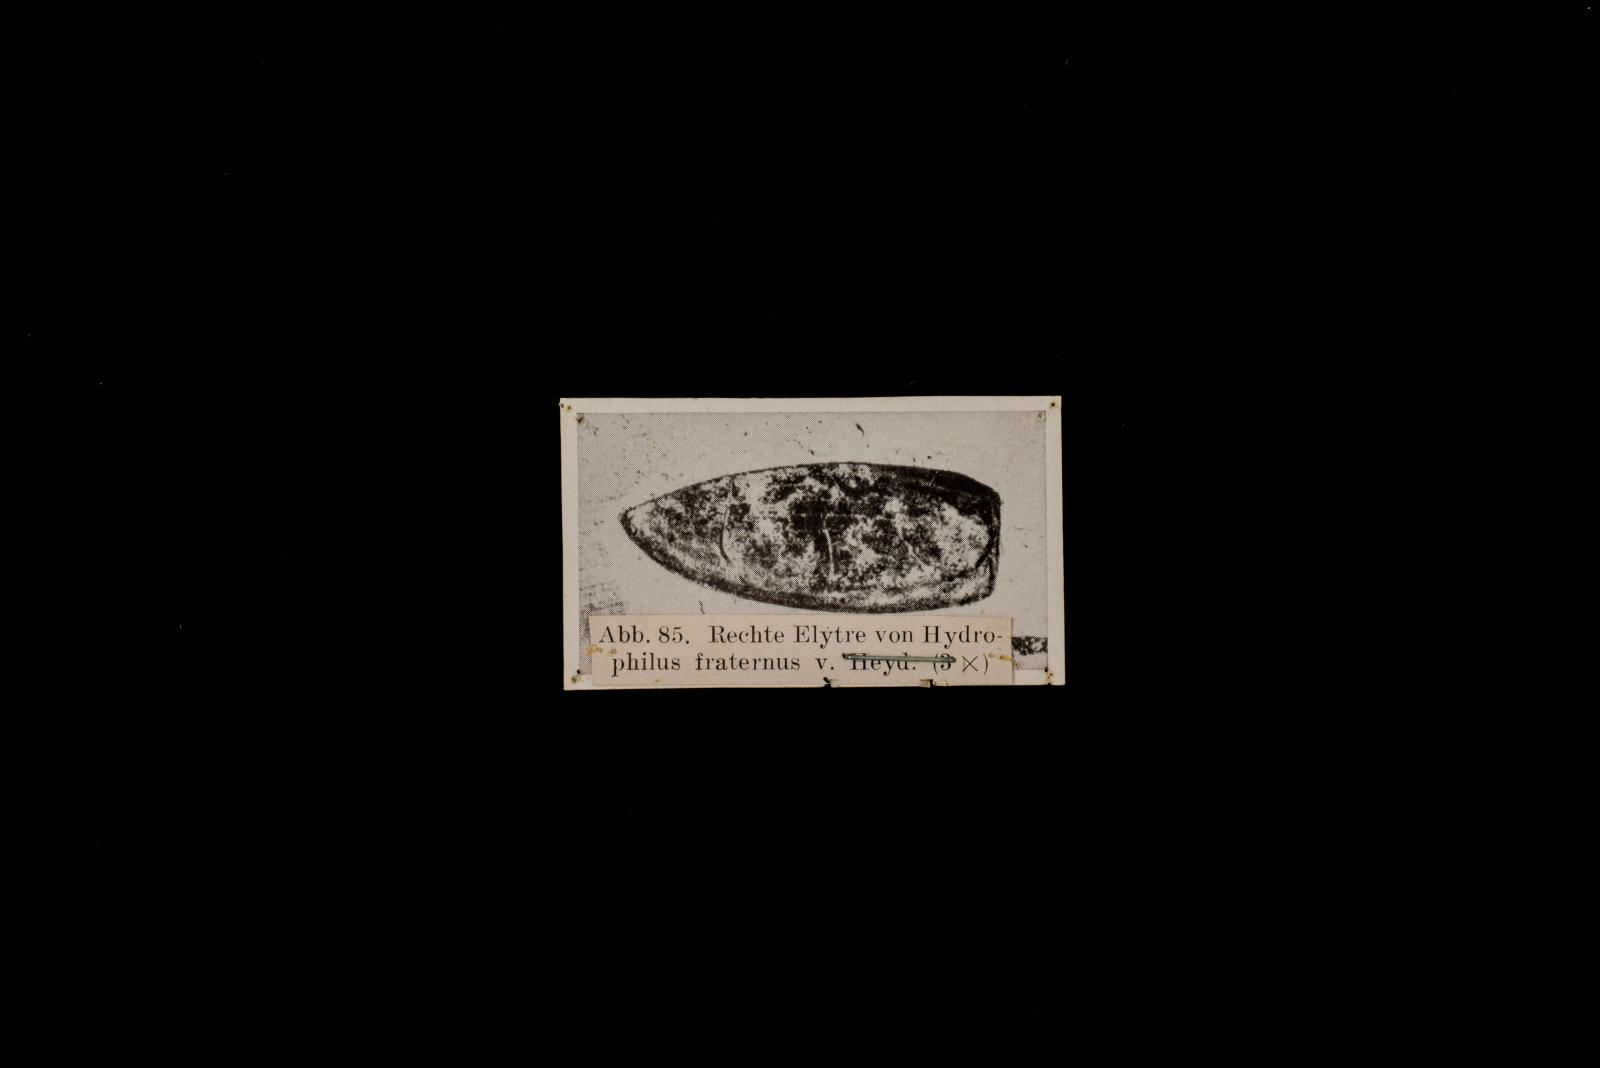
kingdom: Animalia
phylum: Arthropoda
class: Insecta
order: Coleoptera
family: Hydrophilidae
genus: Hydrobiomorpha
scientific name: Hydrobiomorpha fraterna
